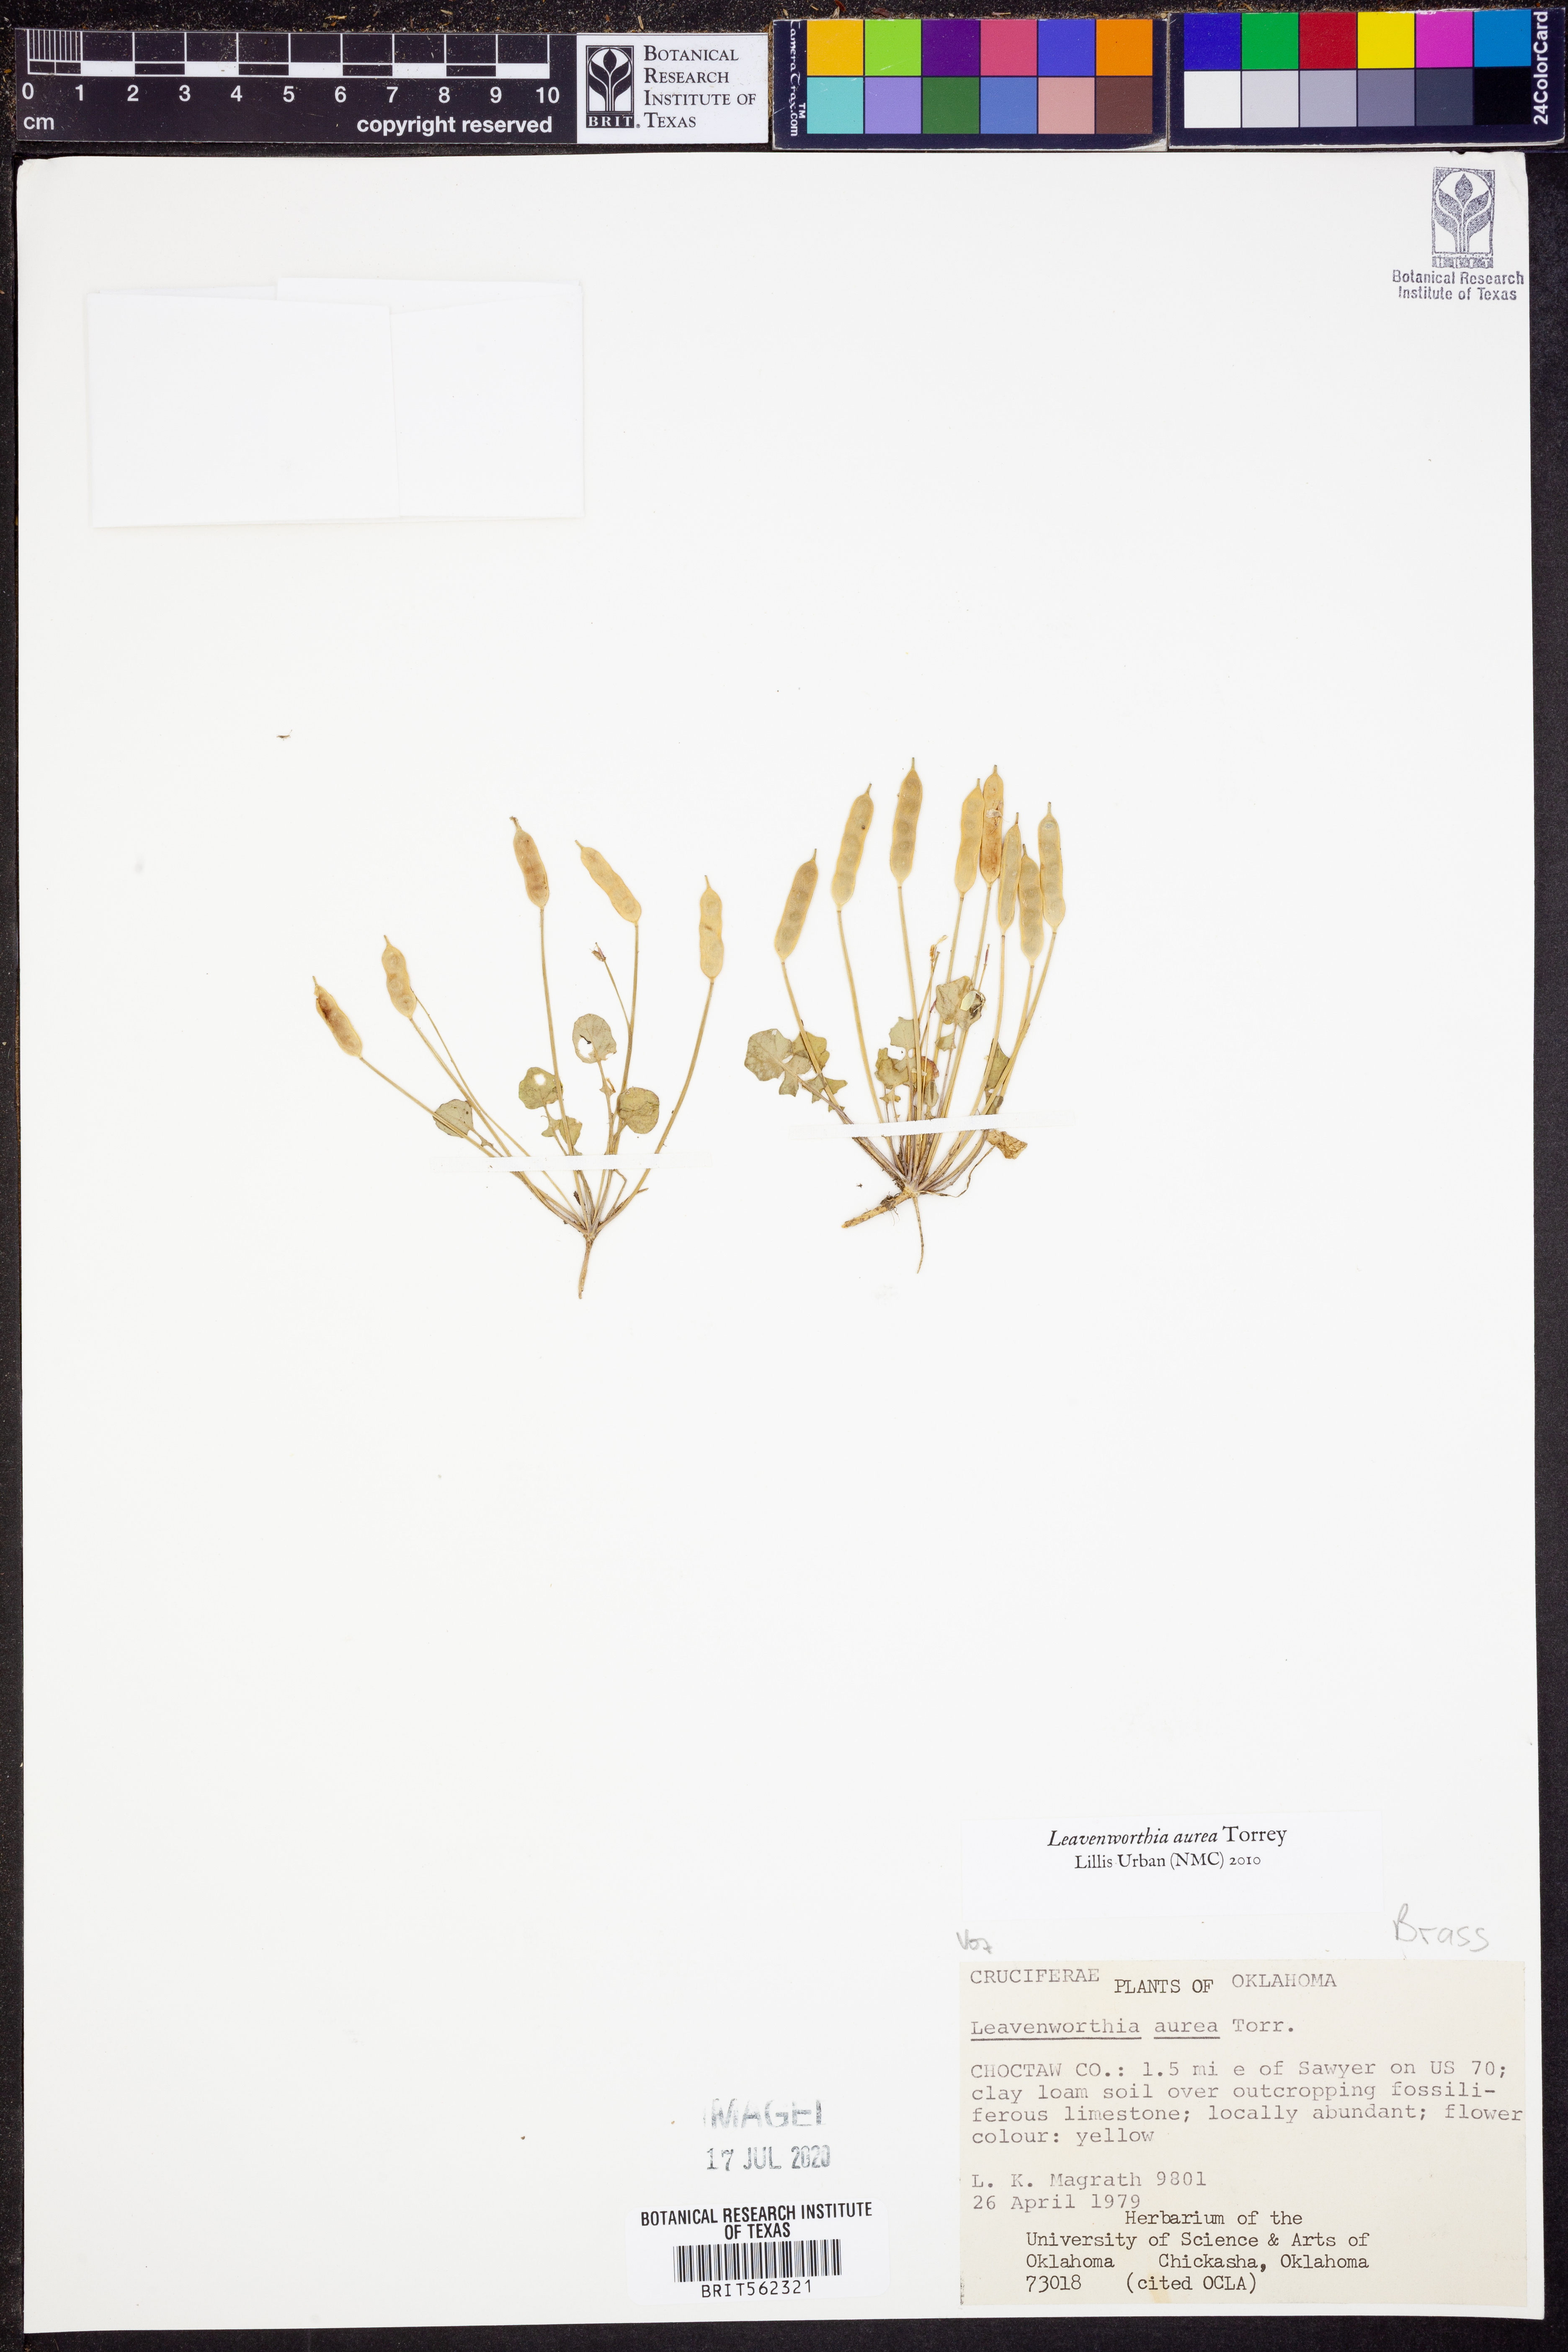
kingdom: Plantae
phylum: Tracheophyta
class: Magnoliopsida
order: Brassicales
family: Brassicaceae
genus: Leavenworthia
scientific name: Leavenworthia aurea
